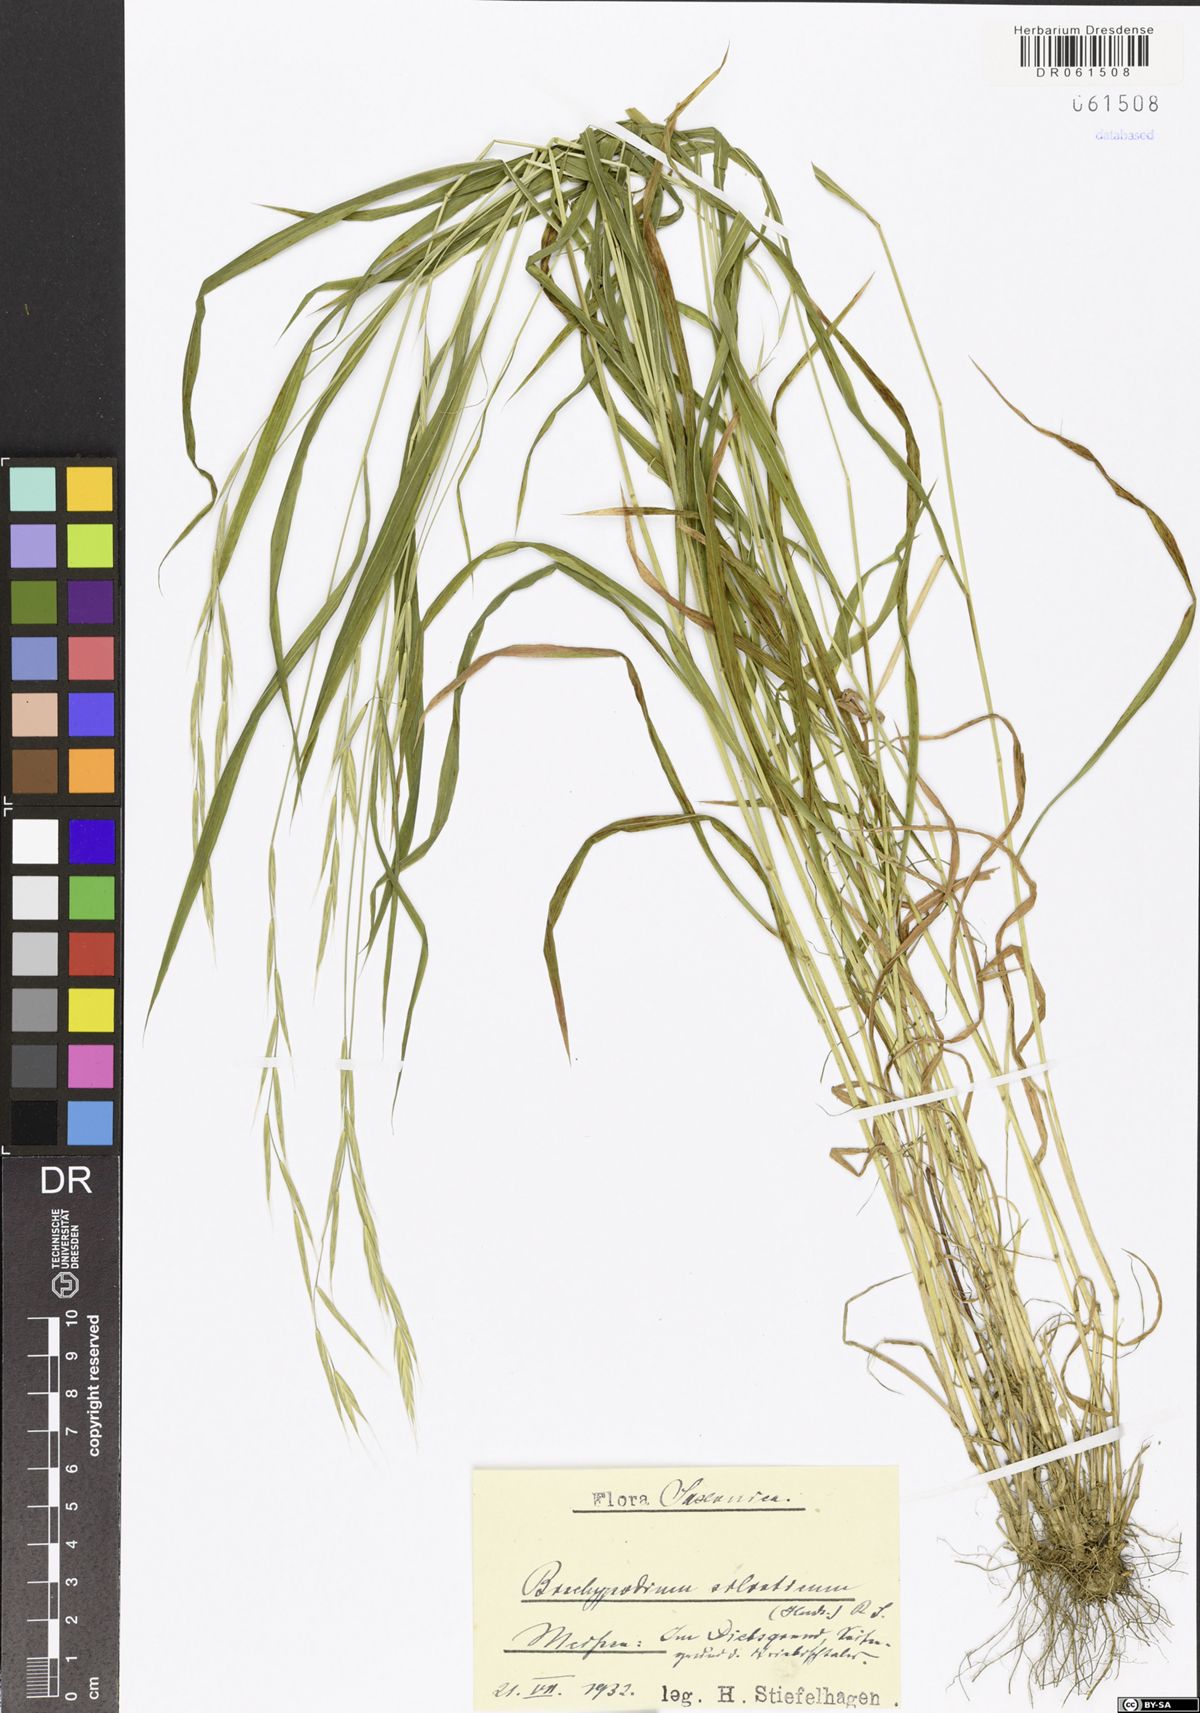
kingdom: Plantae
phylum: Tracheophyta
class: Liliopsida
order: Poales
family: Poaceae
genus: Brachypodium
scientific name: Brachypodium sylvaticum
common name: False-brome
